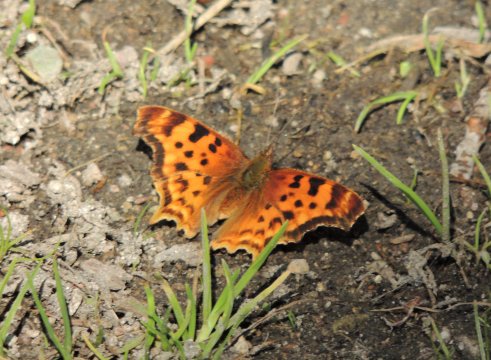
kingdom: Animalia
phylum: Arthropoda
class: Insecta
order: Lepidoptera
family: Nymphalidae
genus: Polygonia
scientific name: Polygonia satyrus
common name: Satyr Comma
